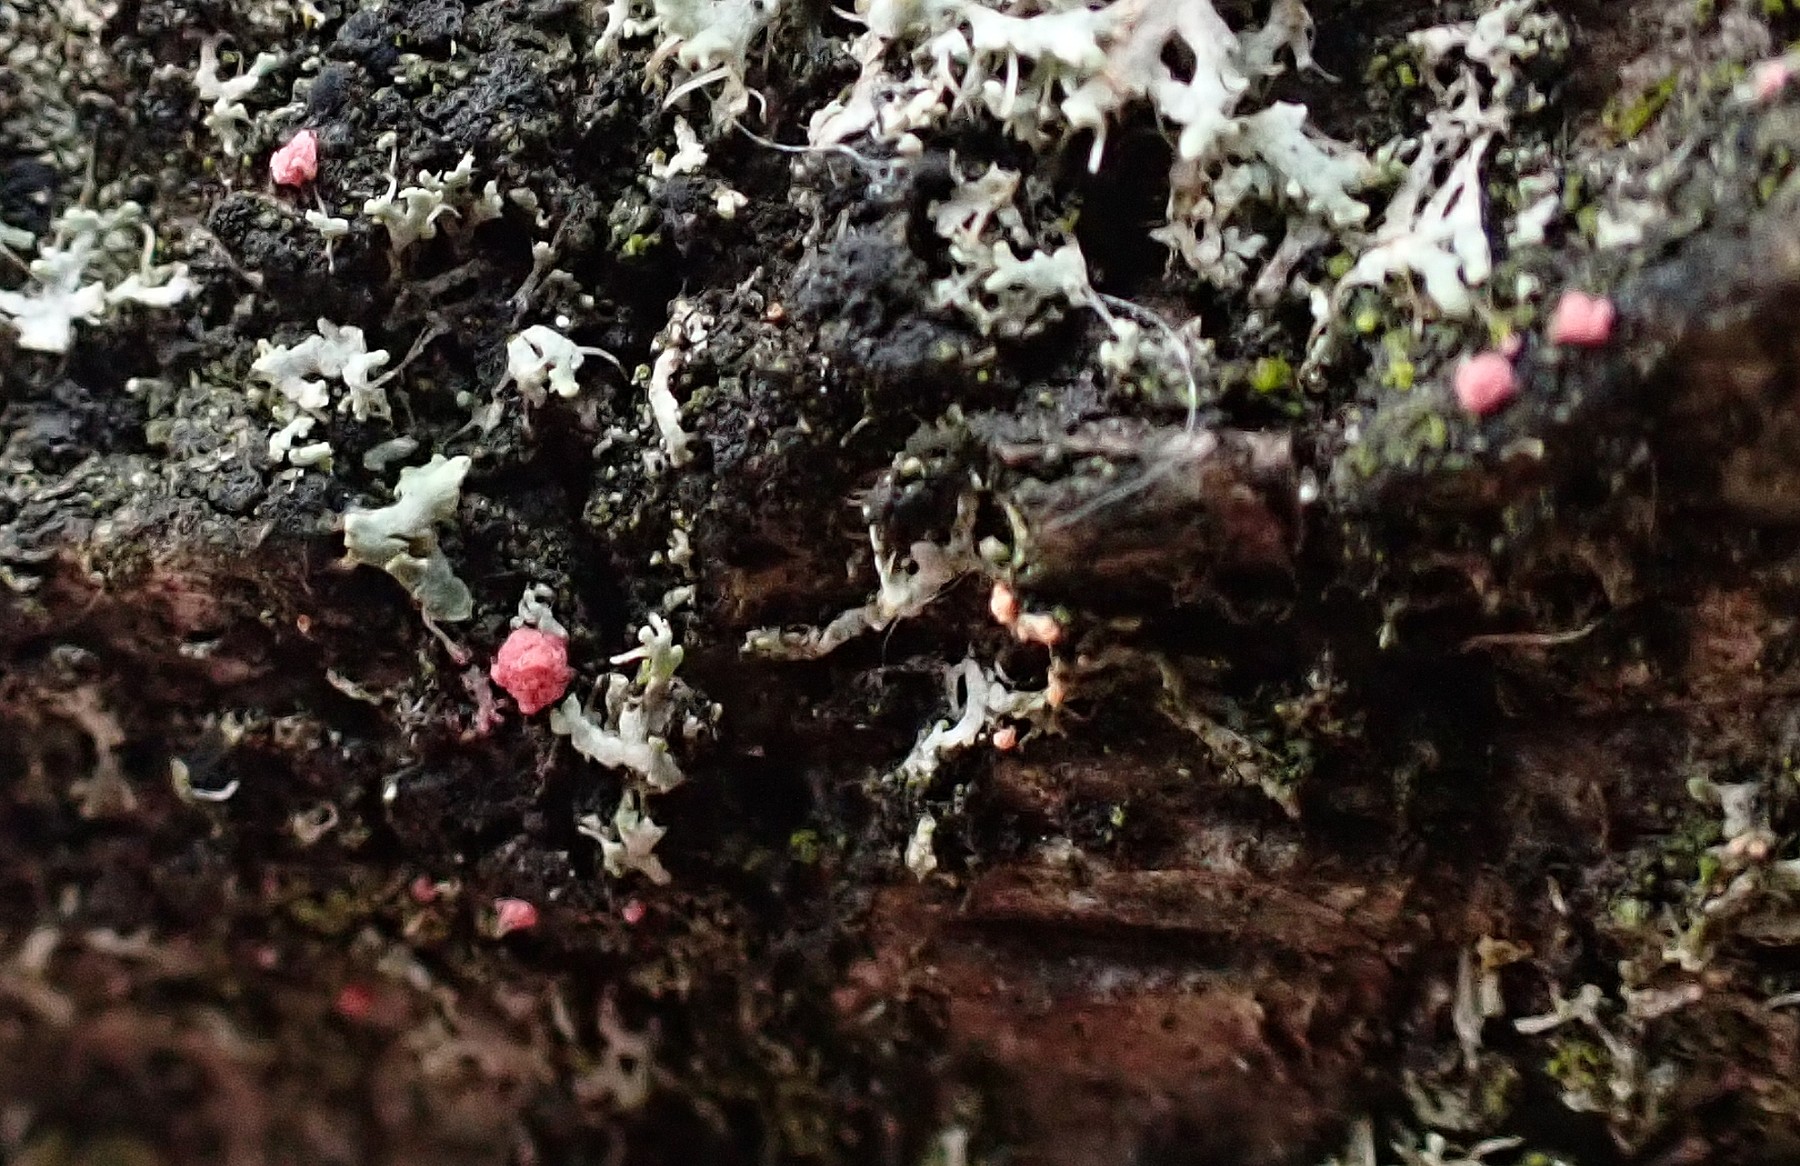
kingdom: Fungi
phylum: Ascomycota
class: Sordariomycetes
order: Hypocreales
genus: Illosporiopsis
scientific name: Illosporiopsis christiansenii
